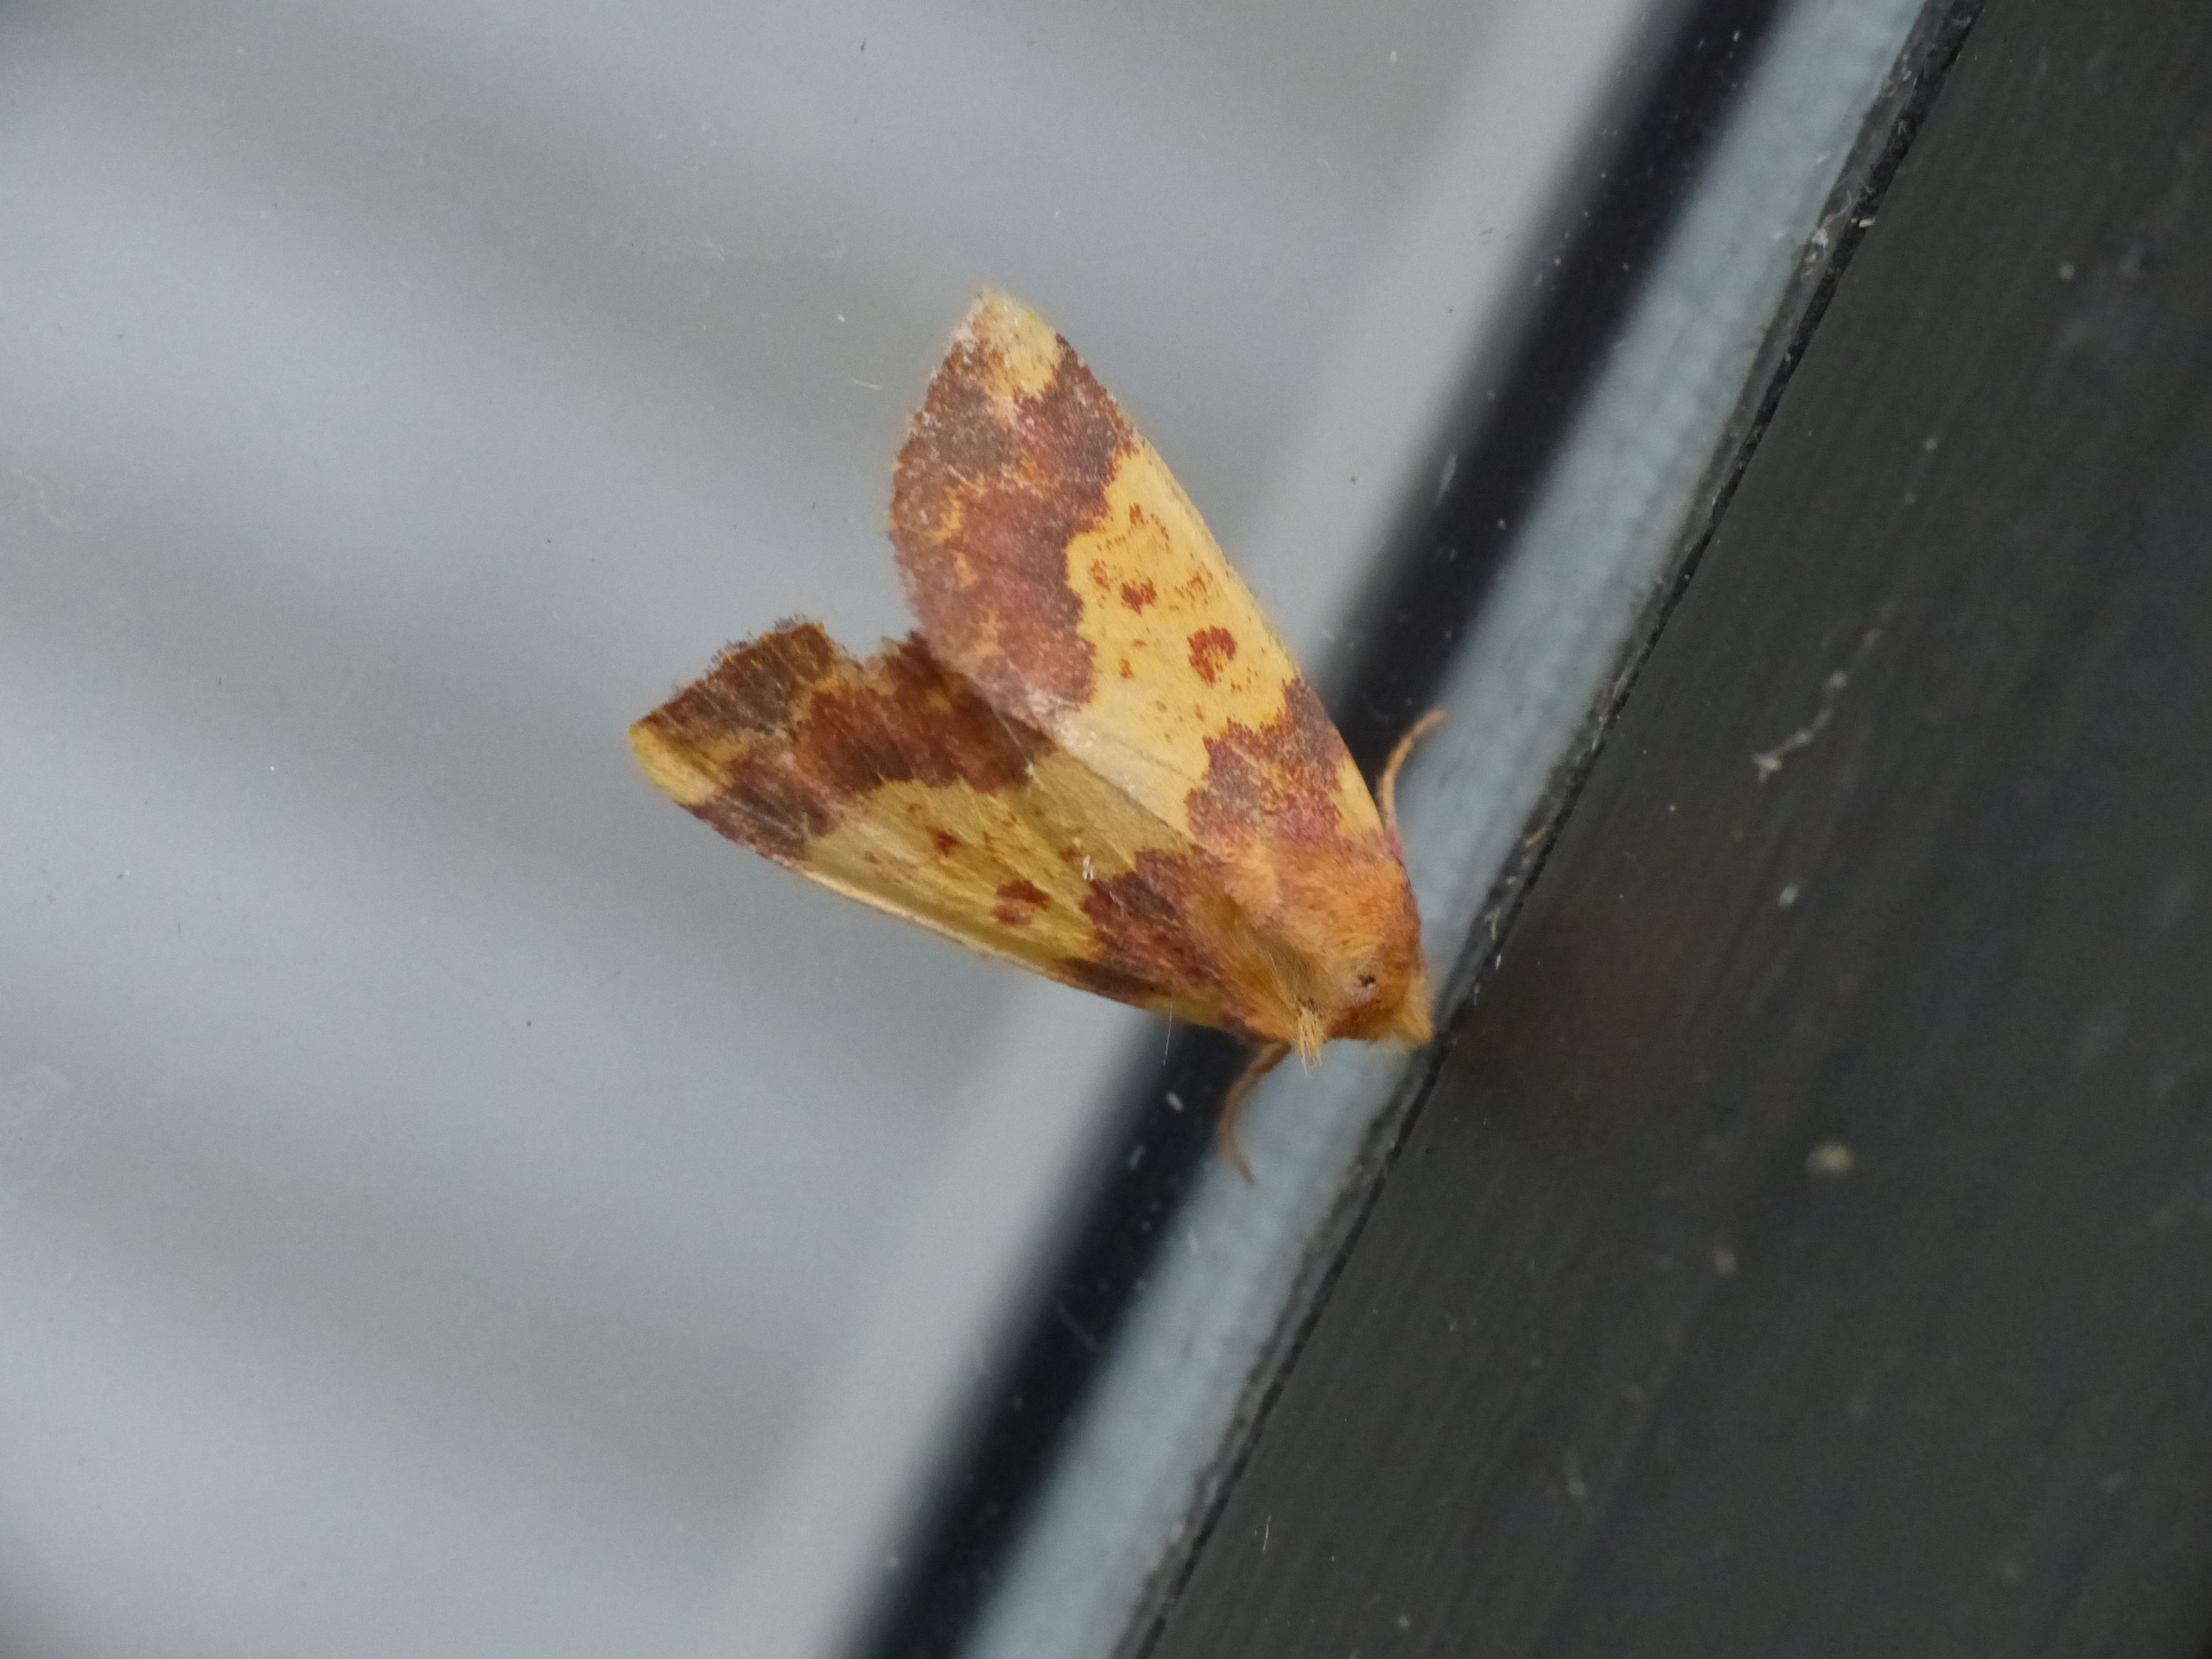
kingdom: Animalia
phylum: Arthropoda
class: Insecta
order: Lepidoptera
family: Noctuidae
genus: Tiliacea
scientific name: Tiliacea aurago
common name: Guldugle
